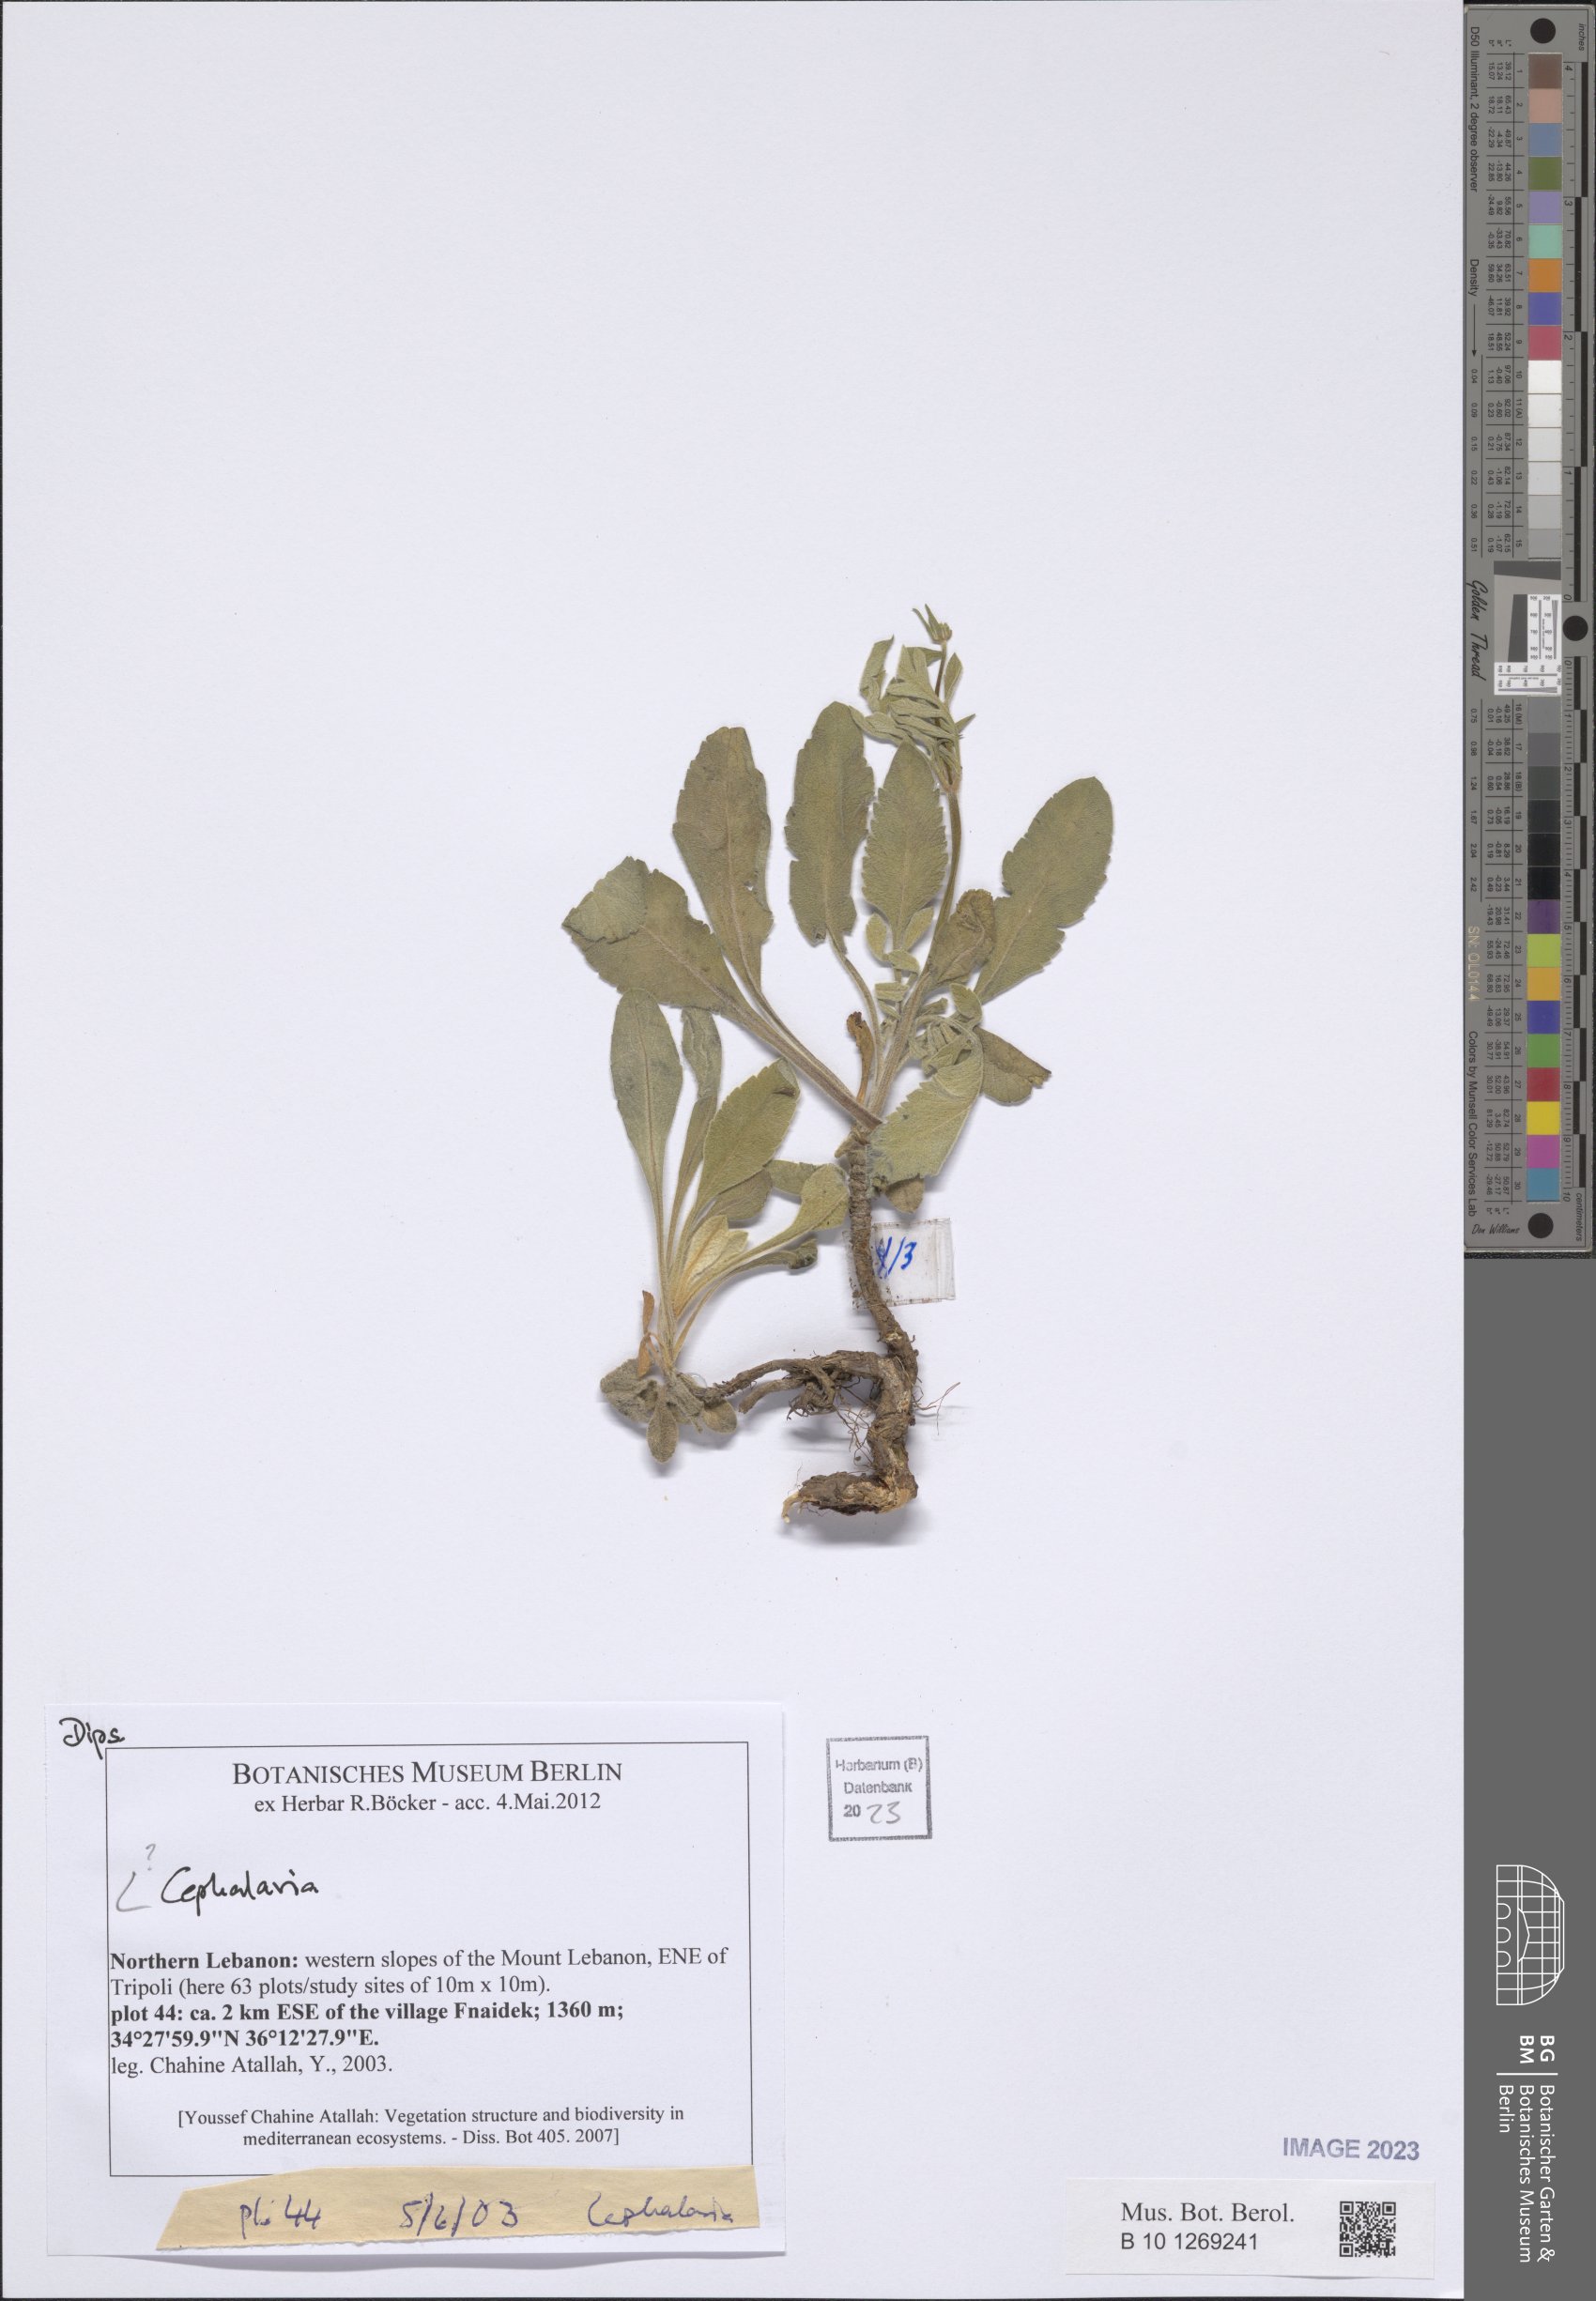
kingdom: Plantae
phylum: Tracheophyta
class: Magnoliopsida
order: Dipsacales
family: Dipsacaceae
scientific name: Dipsacaceae
